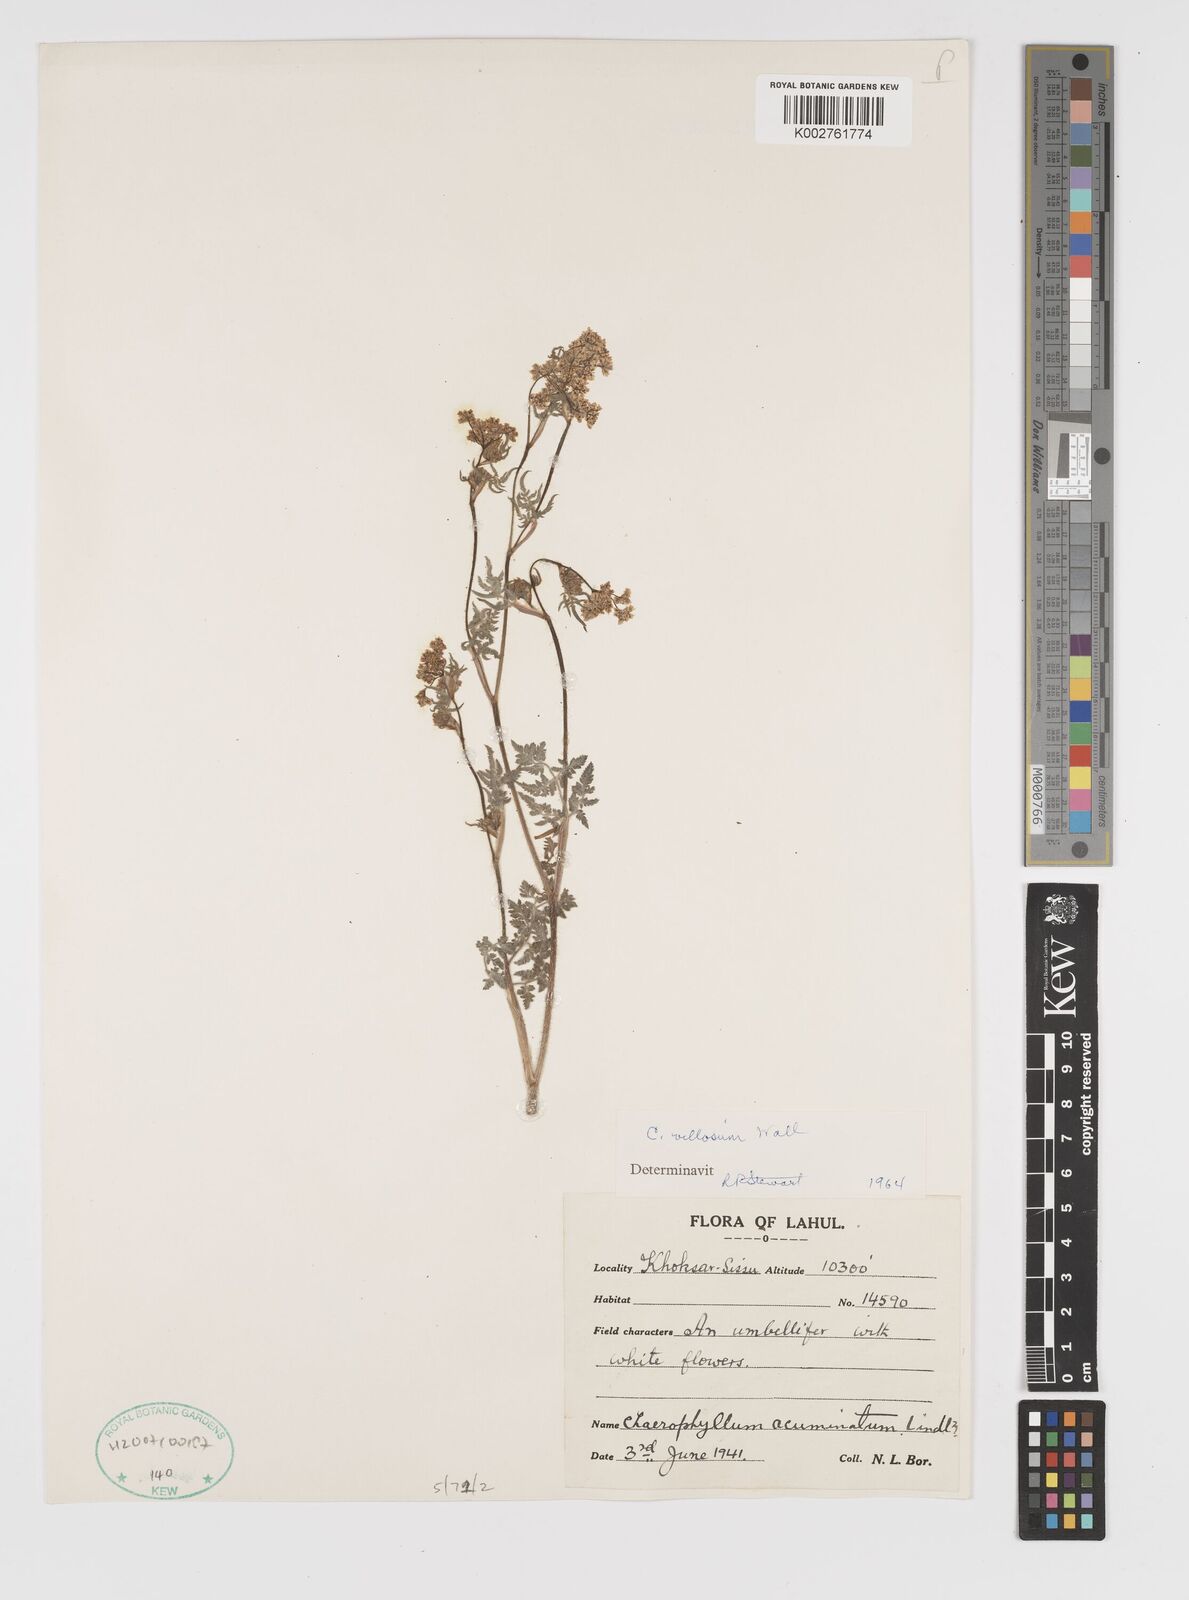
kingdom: Plantae
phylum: Tracheophyta
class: Magnoliopsida
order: Apiales
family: Apiaceae
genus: Chaerophyllum
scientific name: Chaerophyllum reflexum
